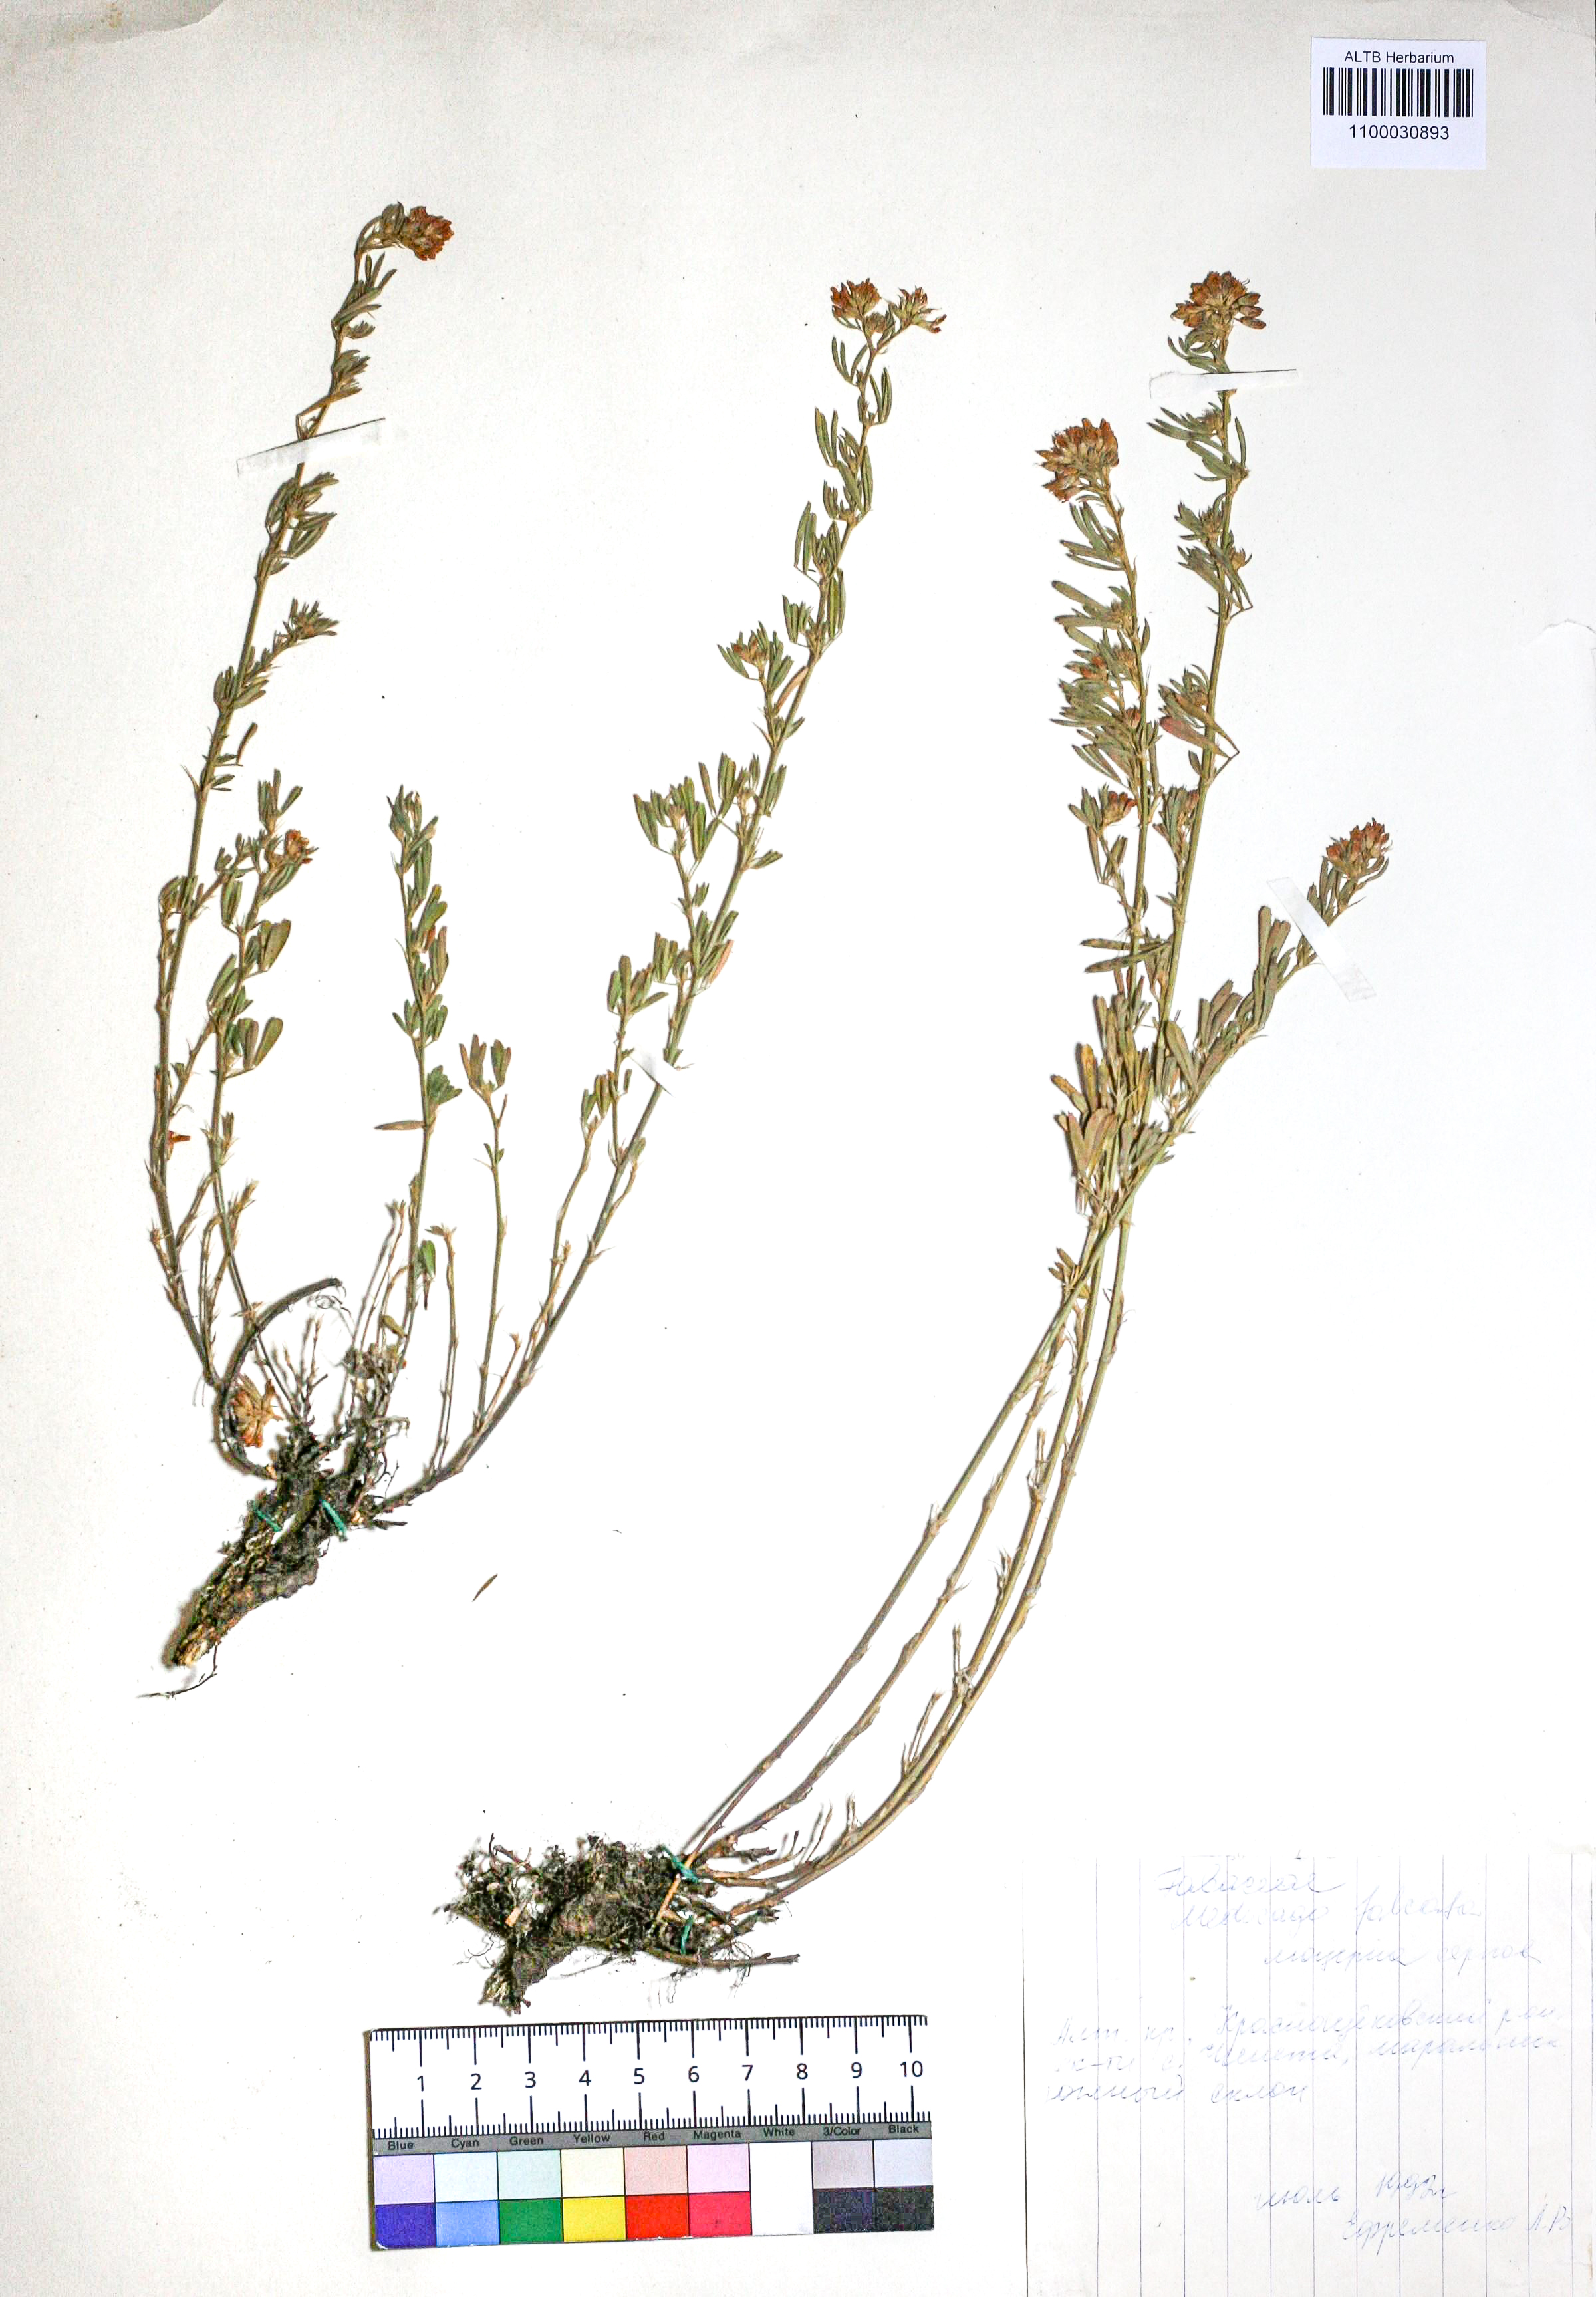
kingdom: Plantae
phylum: Tracheophyta
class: Magnoliopsida
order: Fabales
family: Fabaceae
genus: Medicago
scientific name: Medicago falcata
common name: Sickle medick
